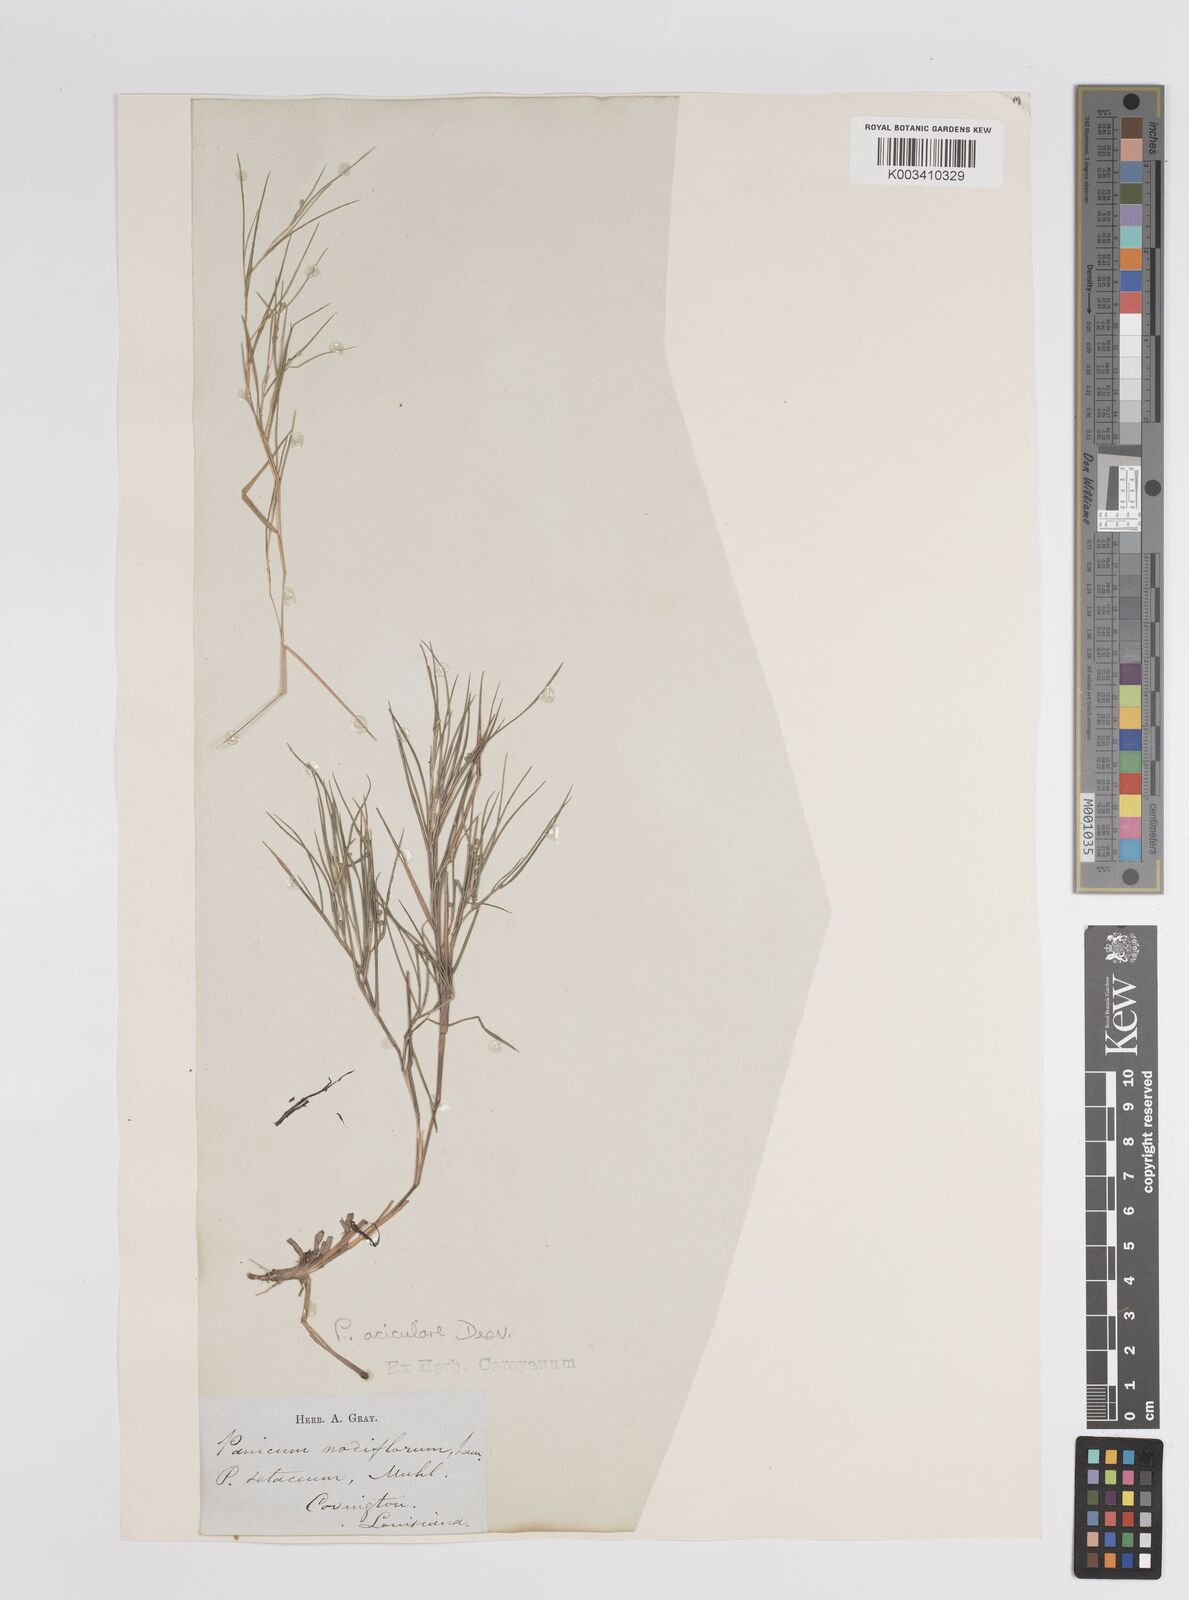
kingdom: Plantae
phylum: Tracheophyta
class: Liliopsida
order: Poales
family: Poaceae
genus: Dichanthelium
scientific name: Dichanthelium aciculare
